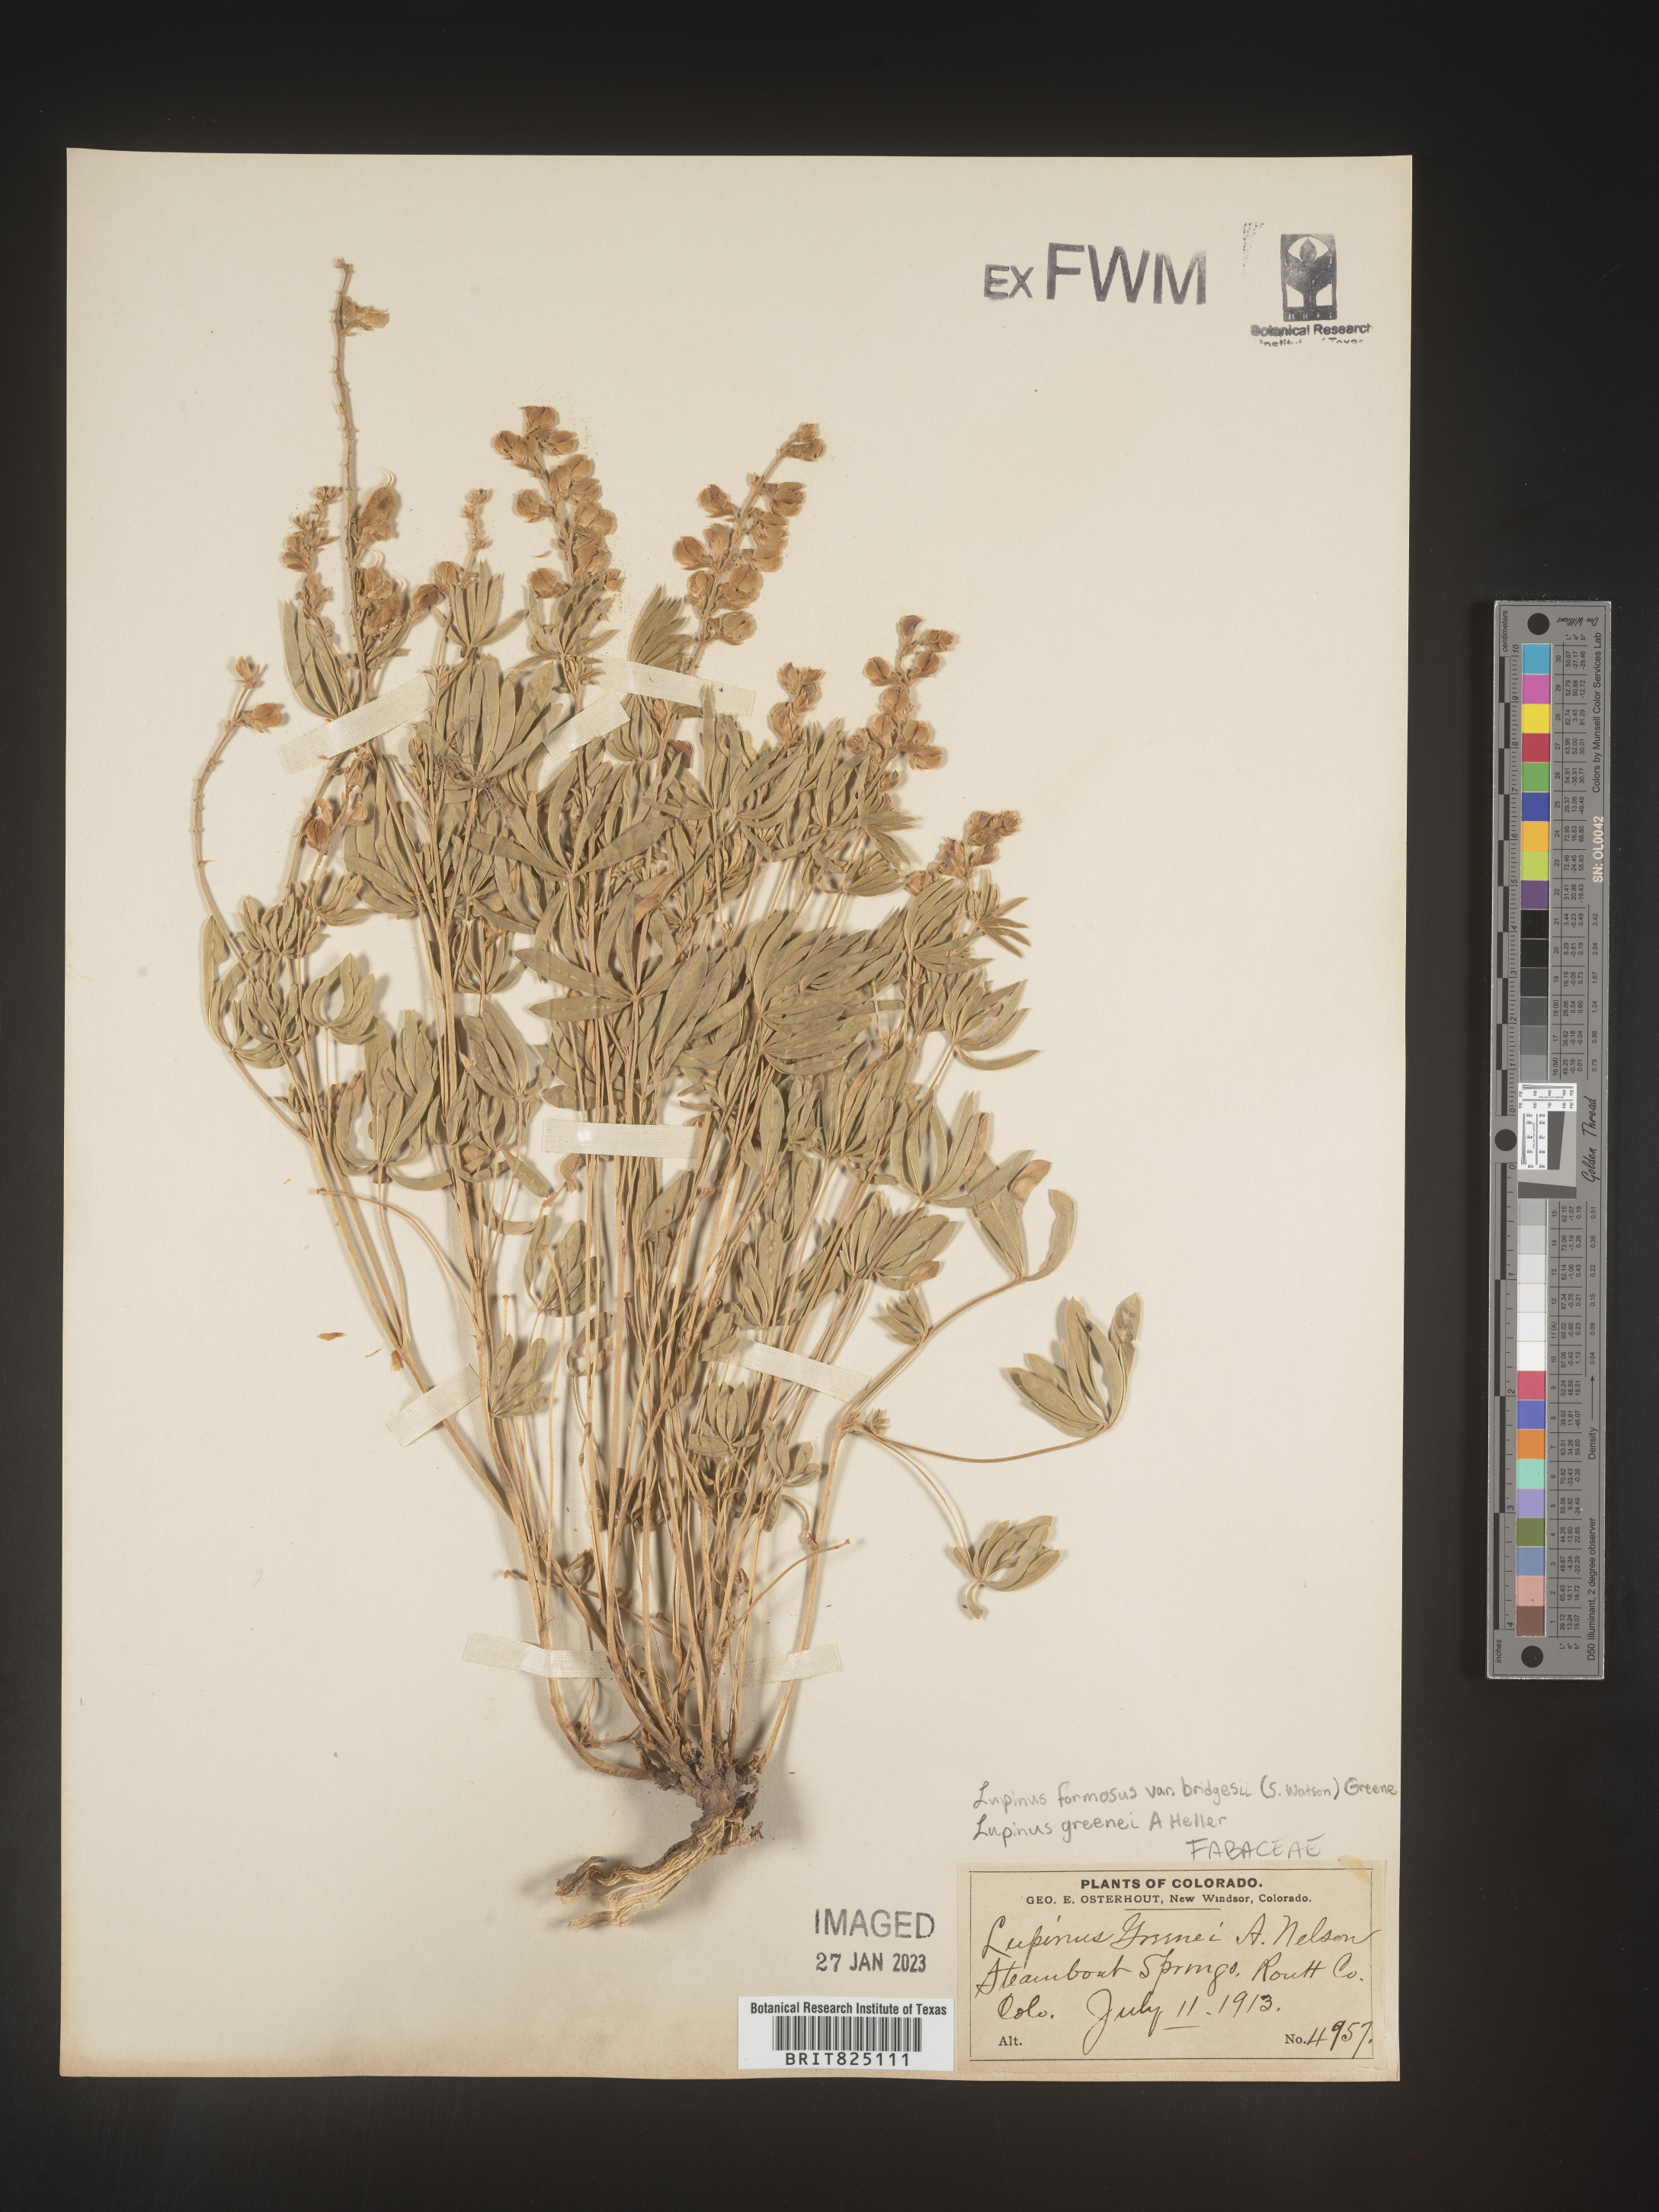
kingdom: Plantae
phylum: Tracheophyta
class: Magnoliopsida
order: Fabales
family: Fabaceae
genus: Lupinus
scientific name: Lupinus
